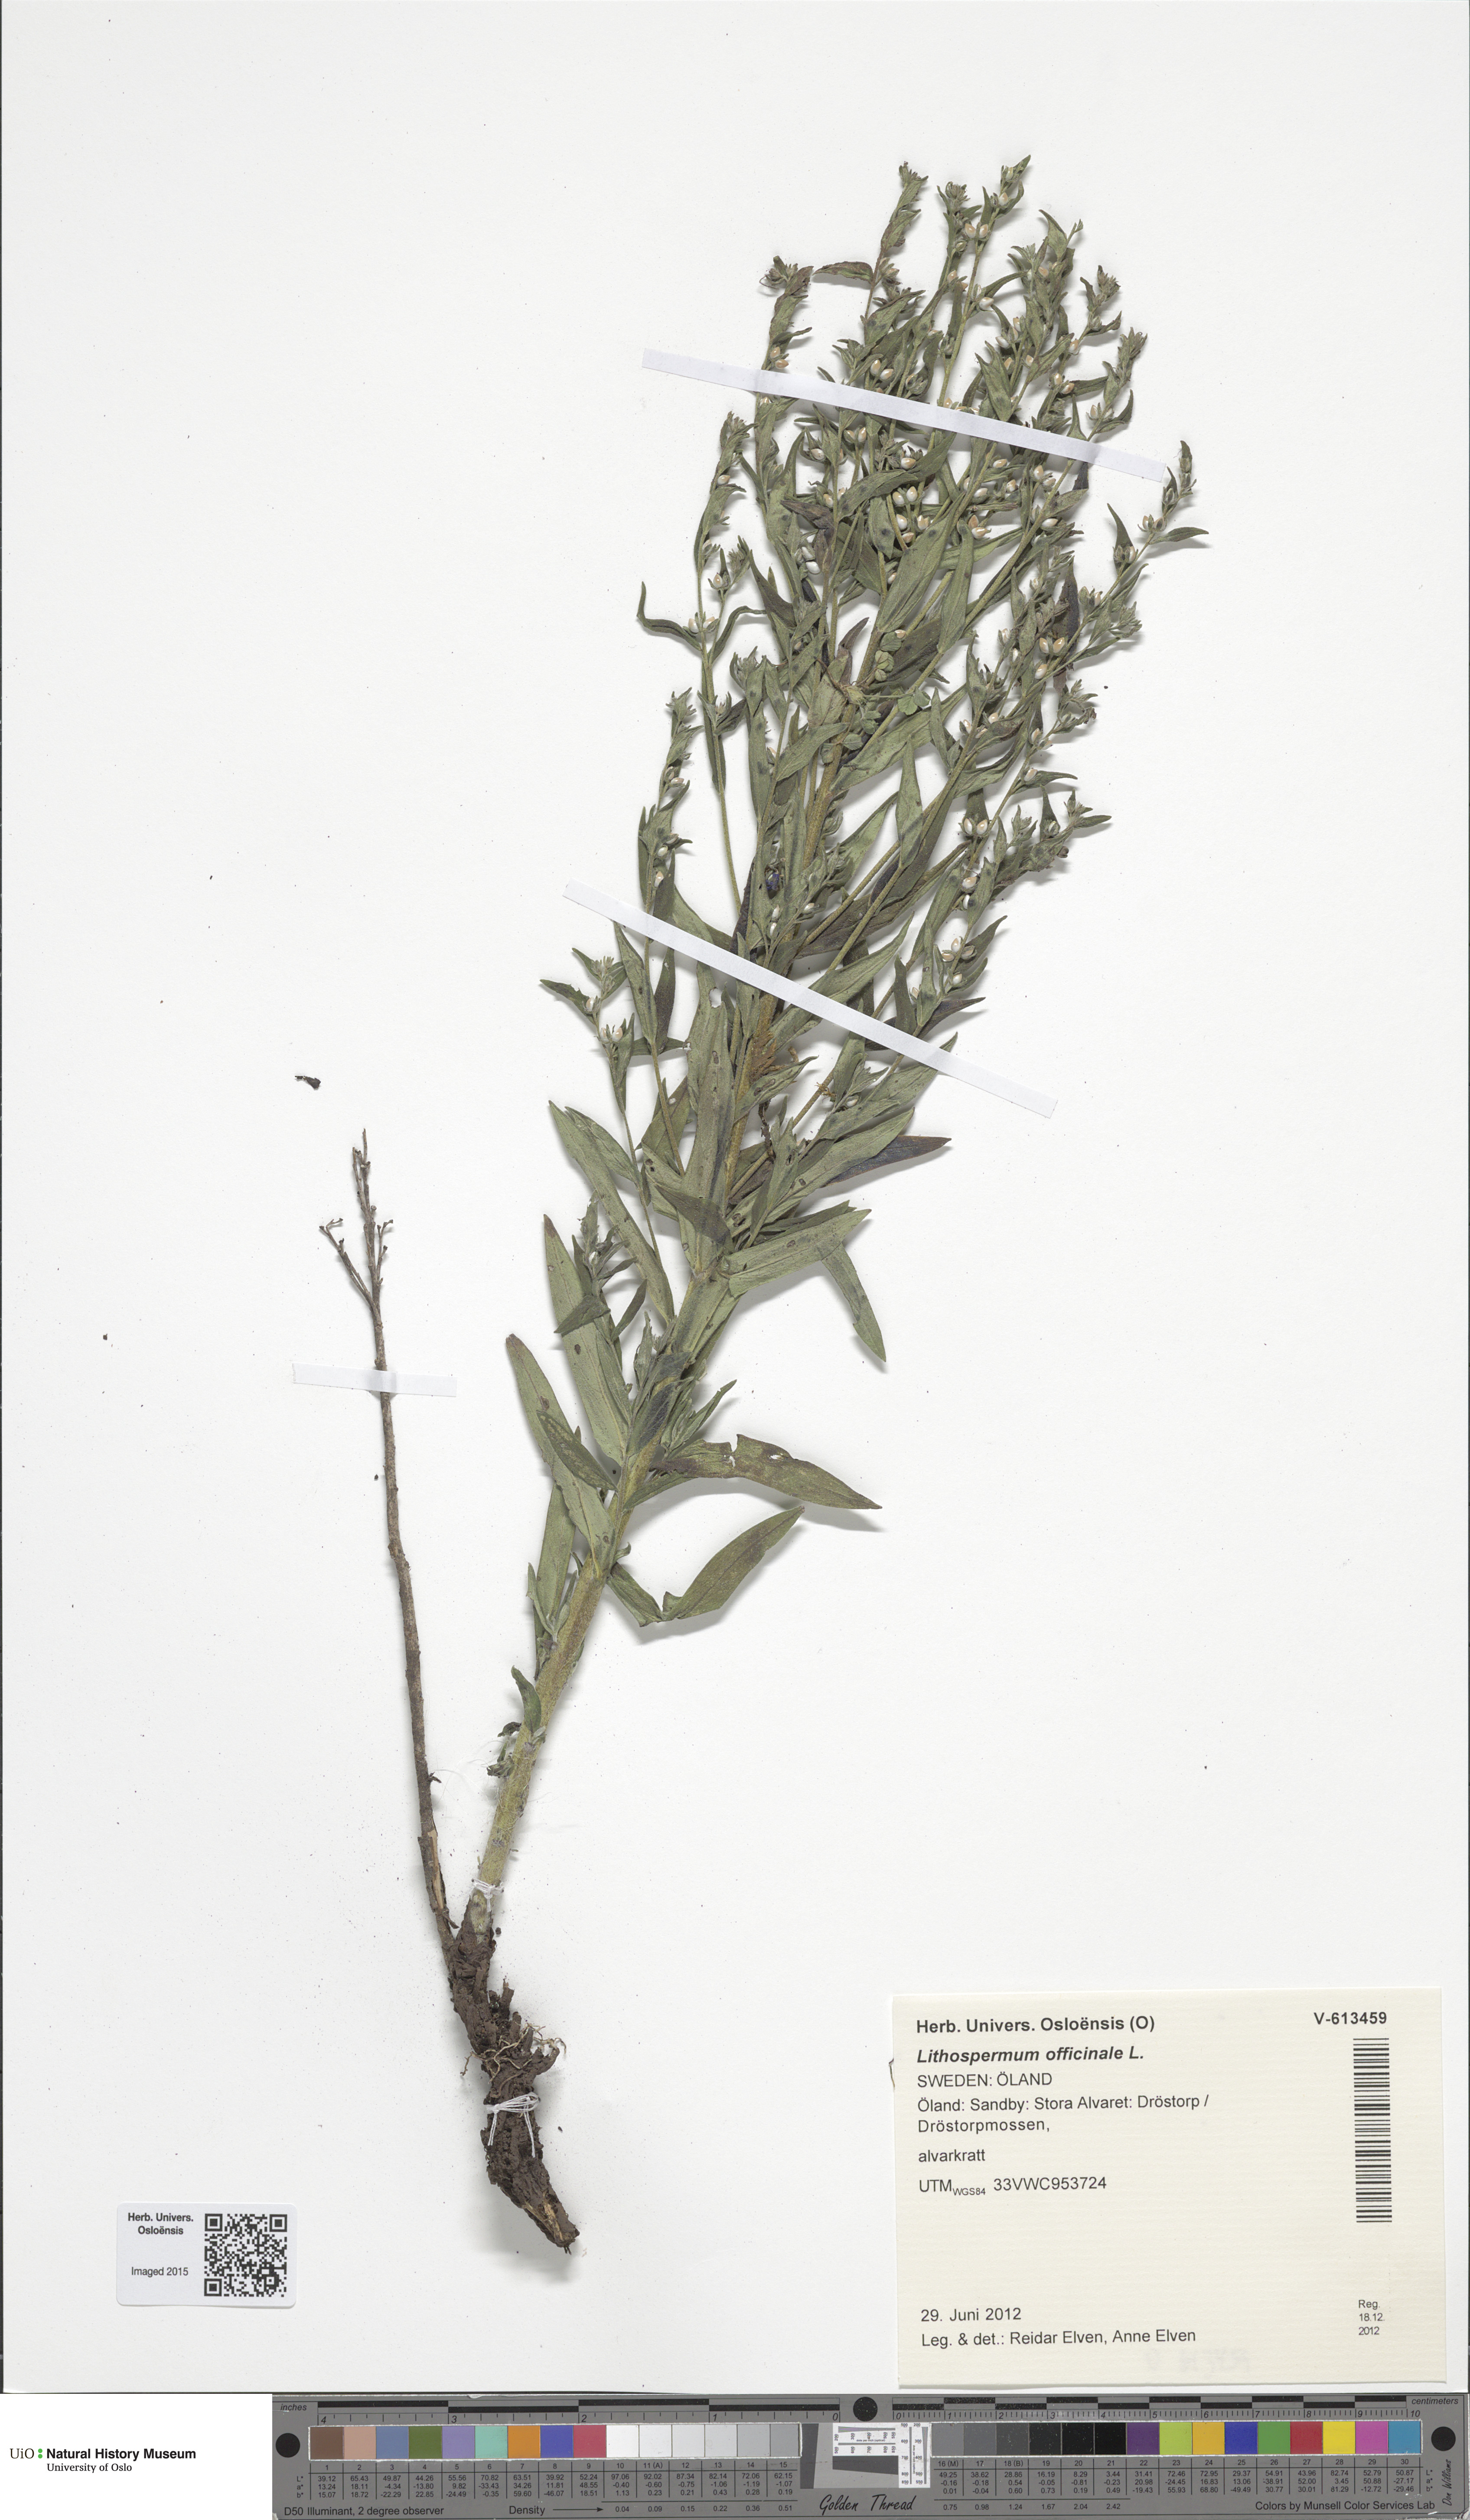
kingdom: Plantae
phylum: Tracheophyta
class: Magnoliopsida
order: Boraginales
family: Boraginaceae
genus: Lithospermum
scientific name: Lithospermum officinale
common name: Common gromwell
